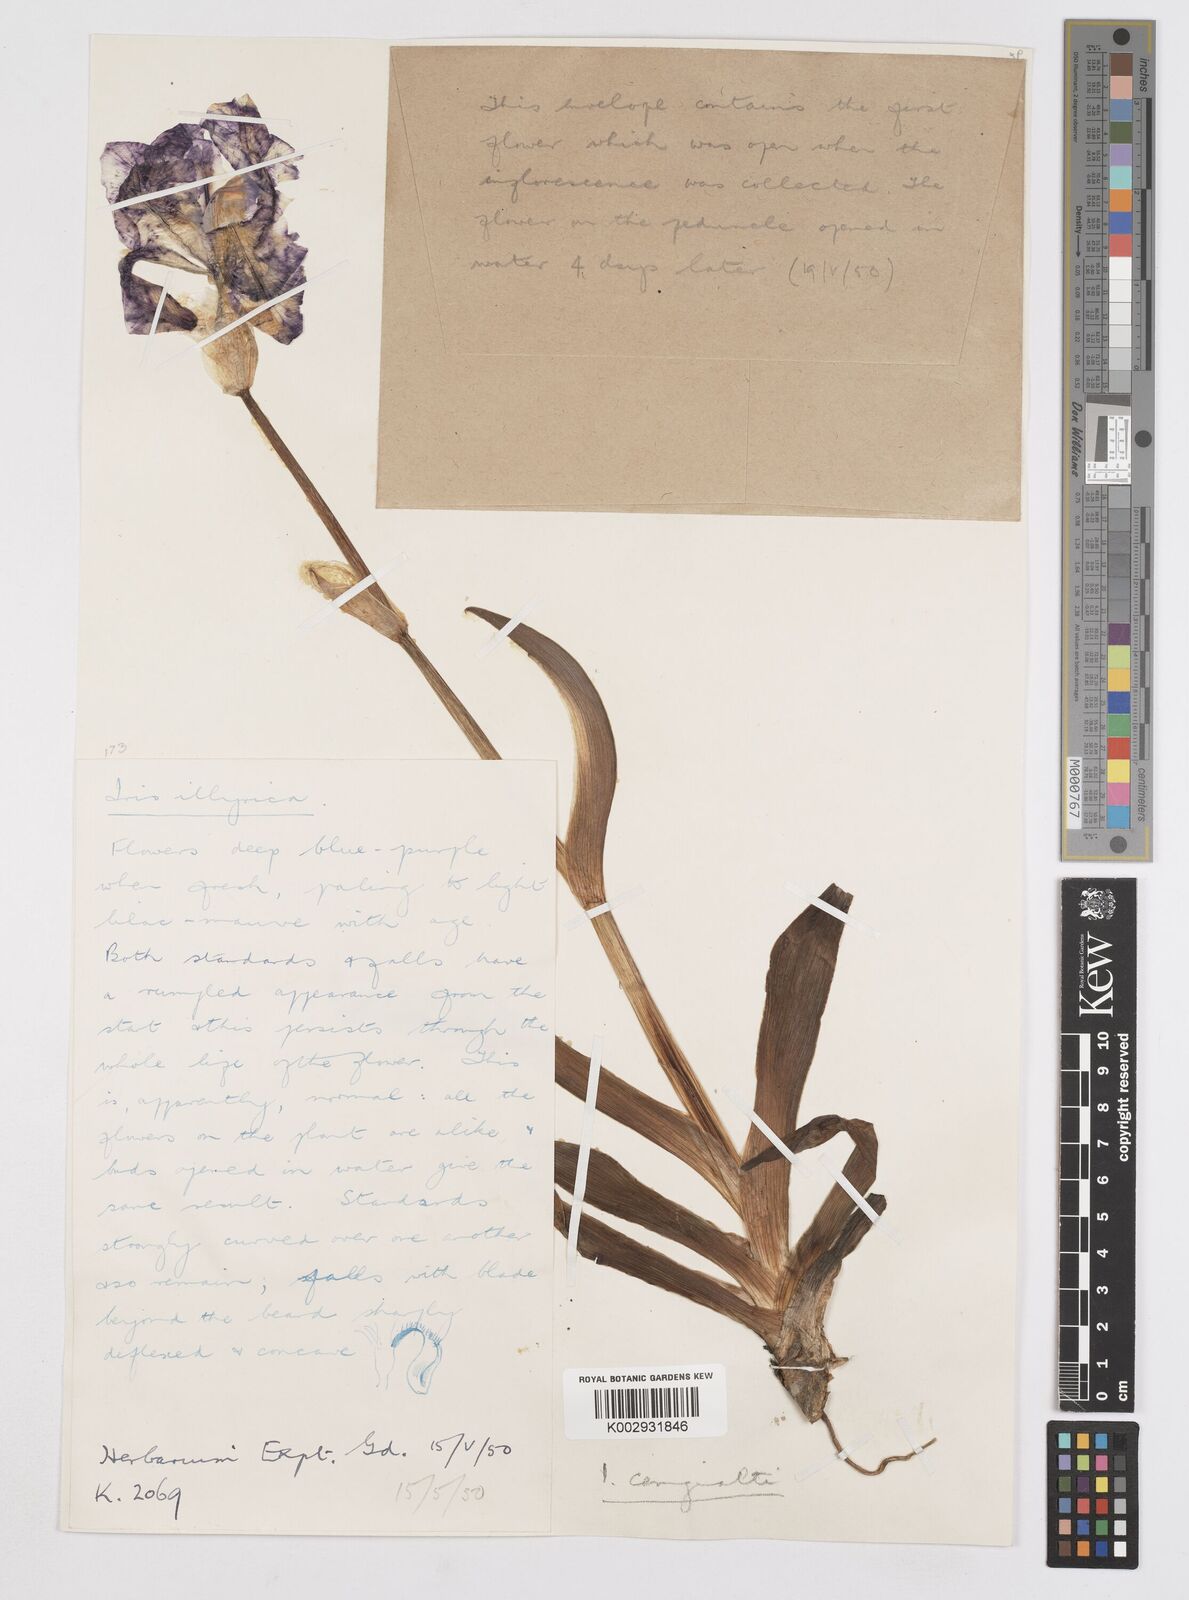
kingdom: Plantae
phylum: Tracheophyta
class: Liliopsida
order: Asparagales
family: Iridaceae
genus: Iris
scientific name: Iris pallida
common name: Sweet iris
